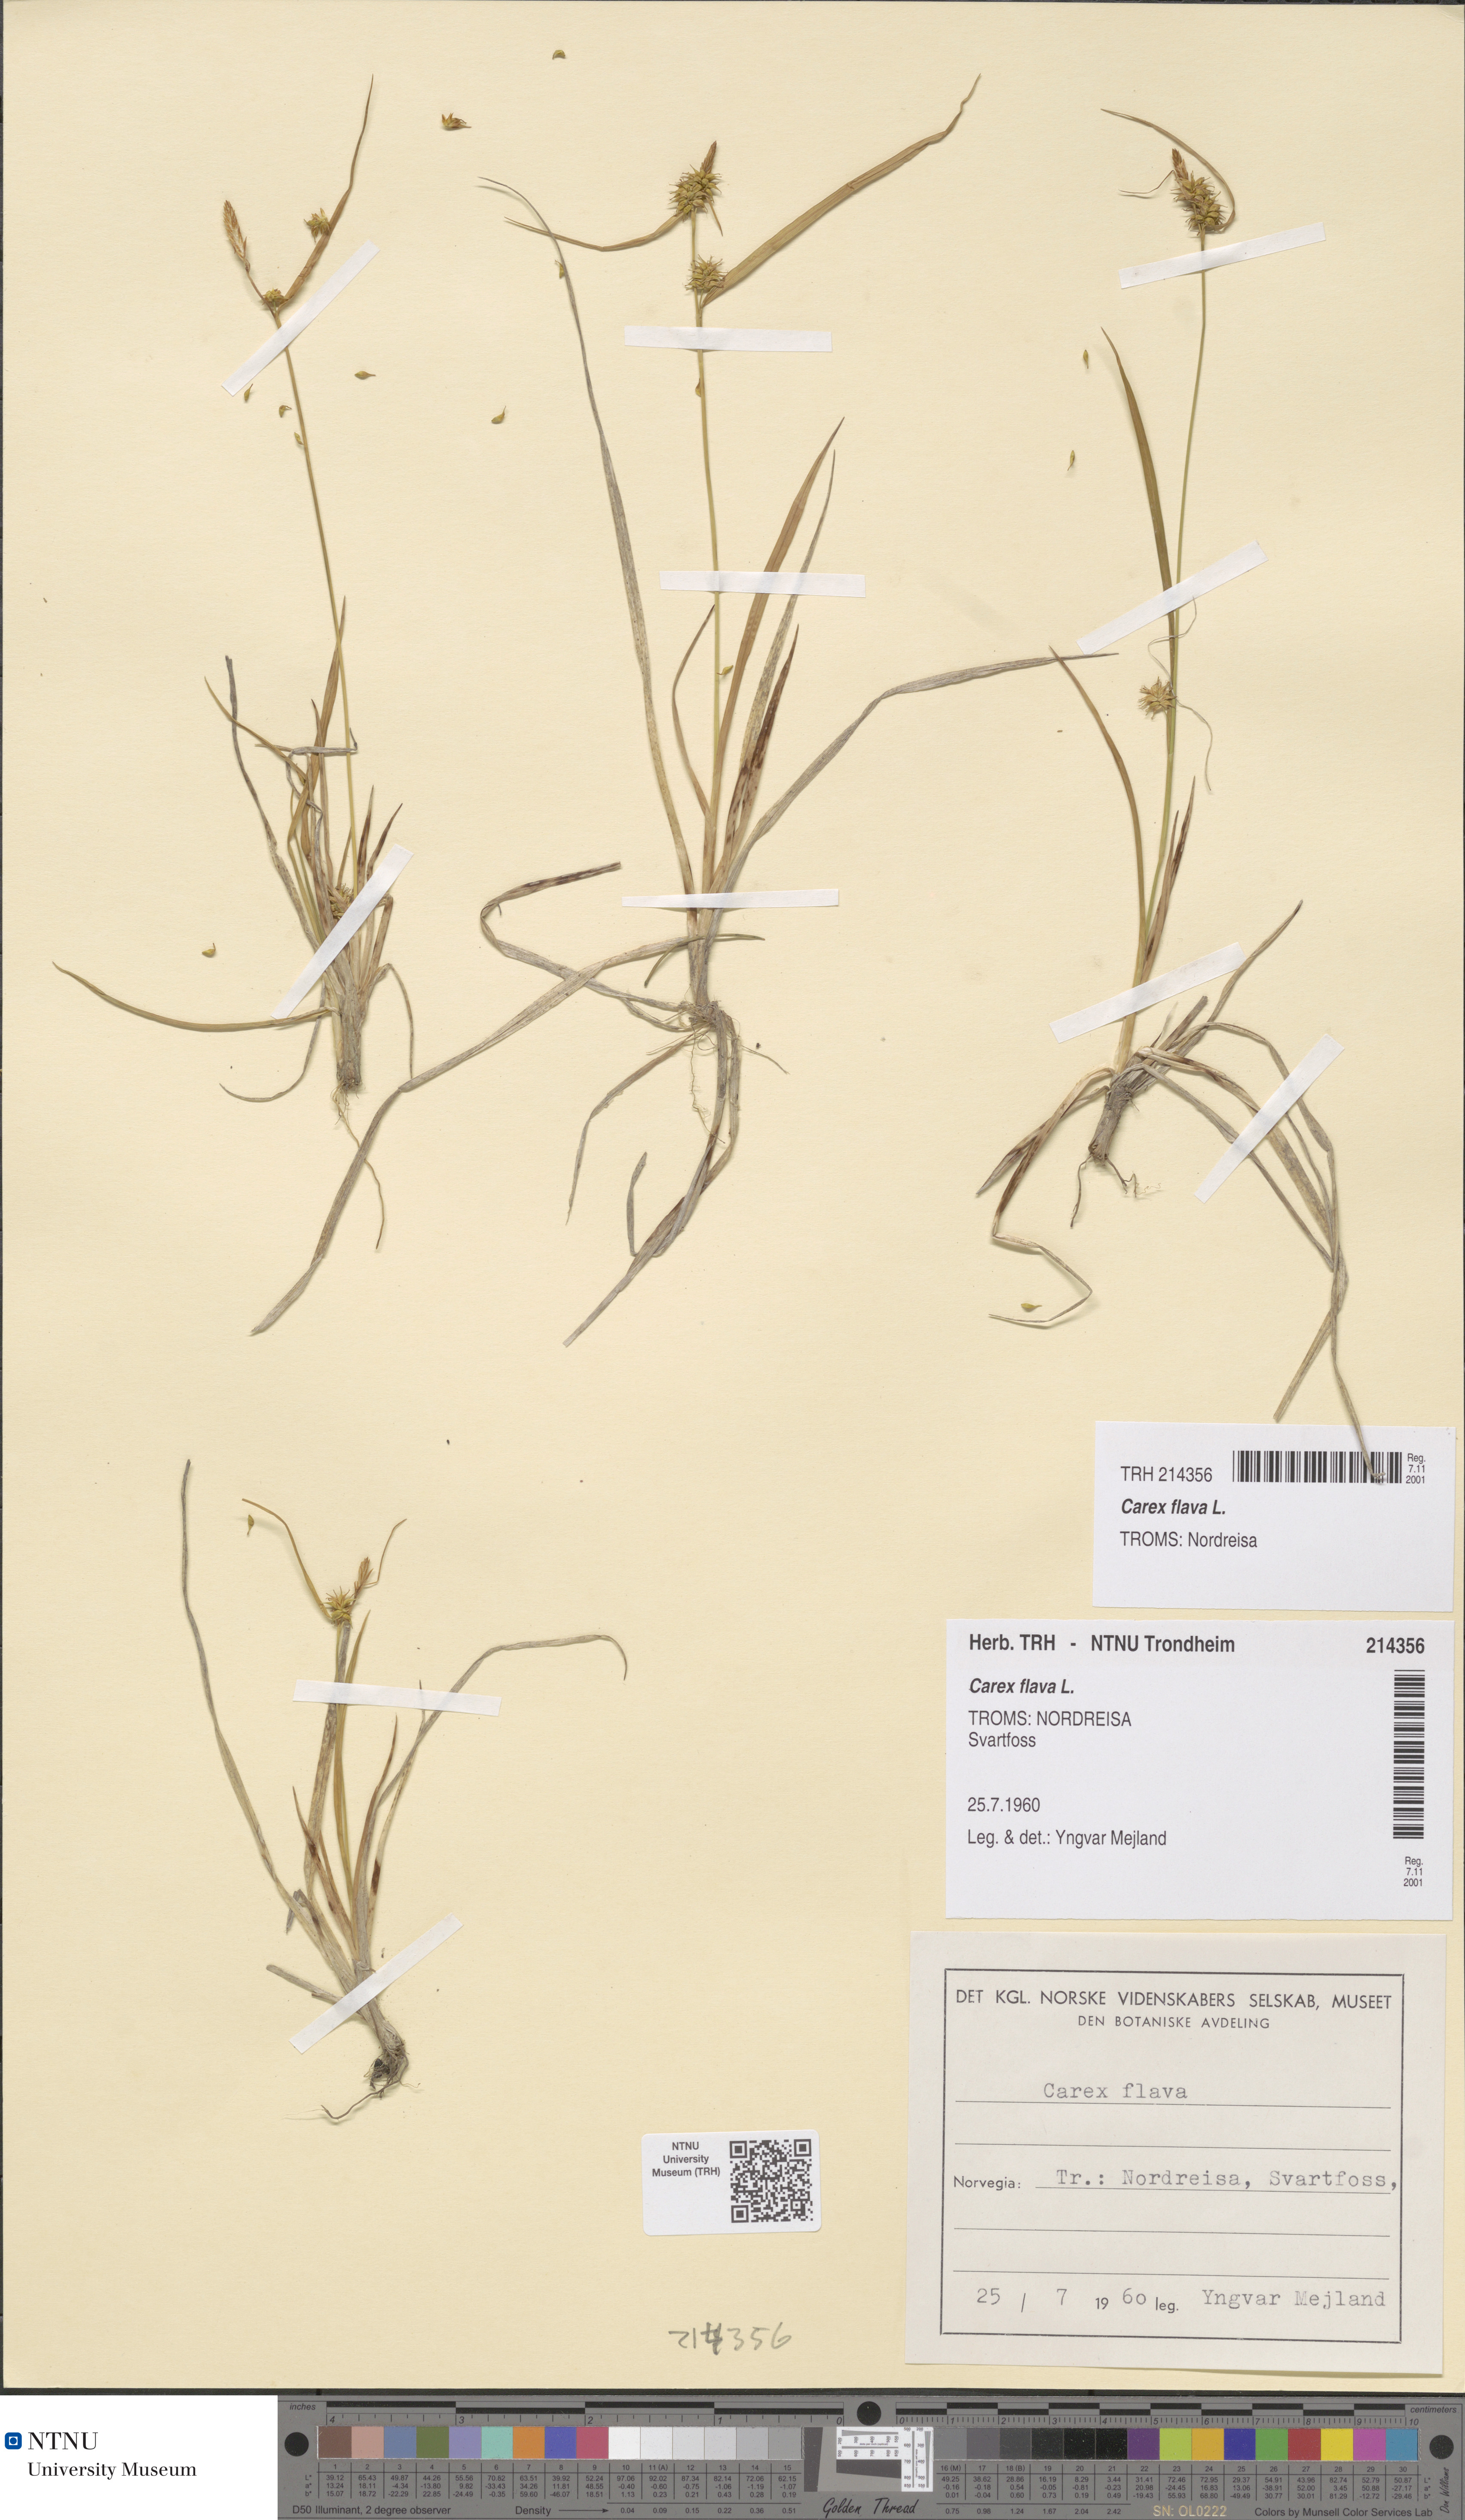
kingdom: Plantae
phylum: Tracheophyta
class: Liliopsida
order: Poales
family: Cyperaceae
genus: Carex
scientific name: Carex flava
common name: Large yellow-sedge
